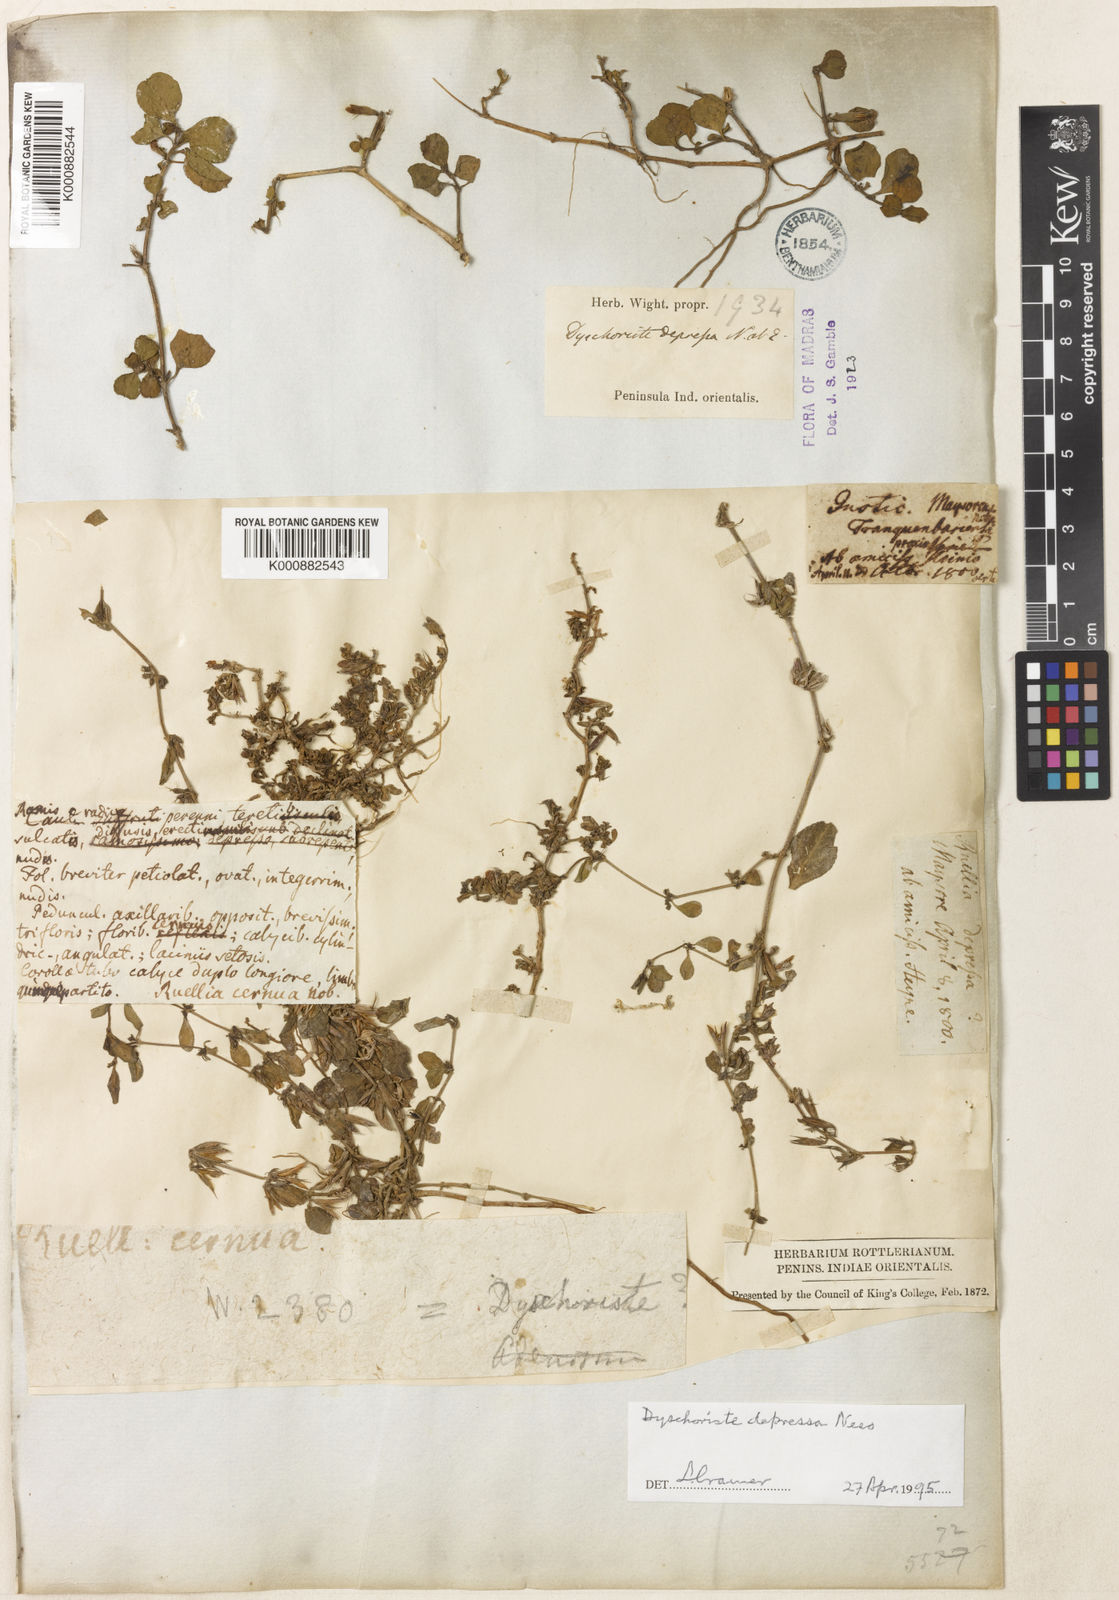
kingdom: Plantae
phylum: Tracheophyta
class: Magnoliopsida
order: Lamiales
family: Acanthaceae
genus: Dyschoriste
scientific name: Dyschoriste nagchana
